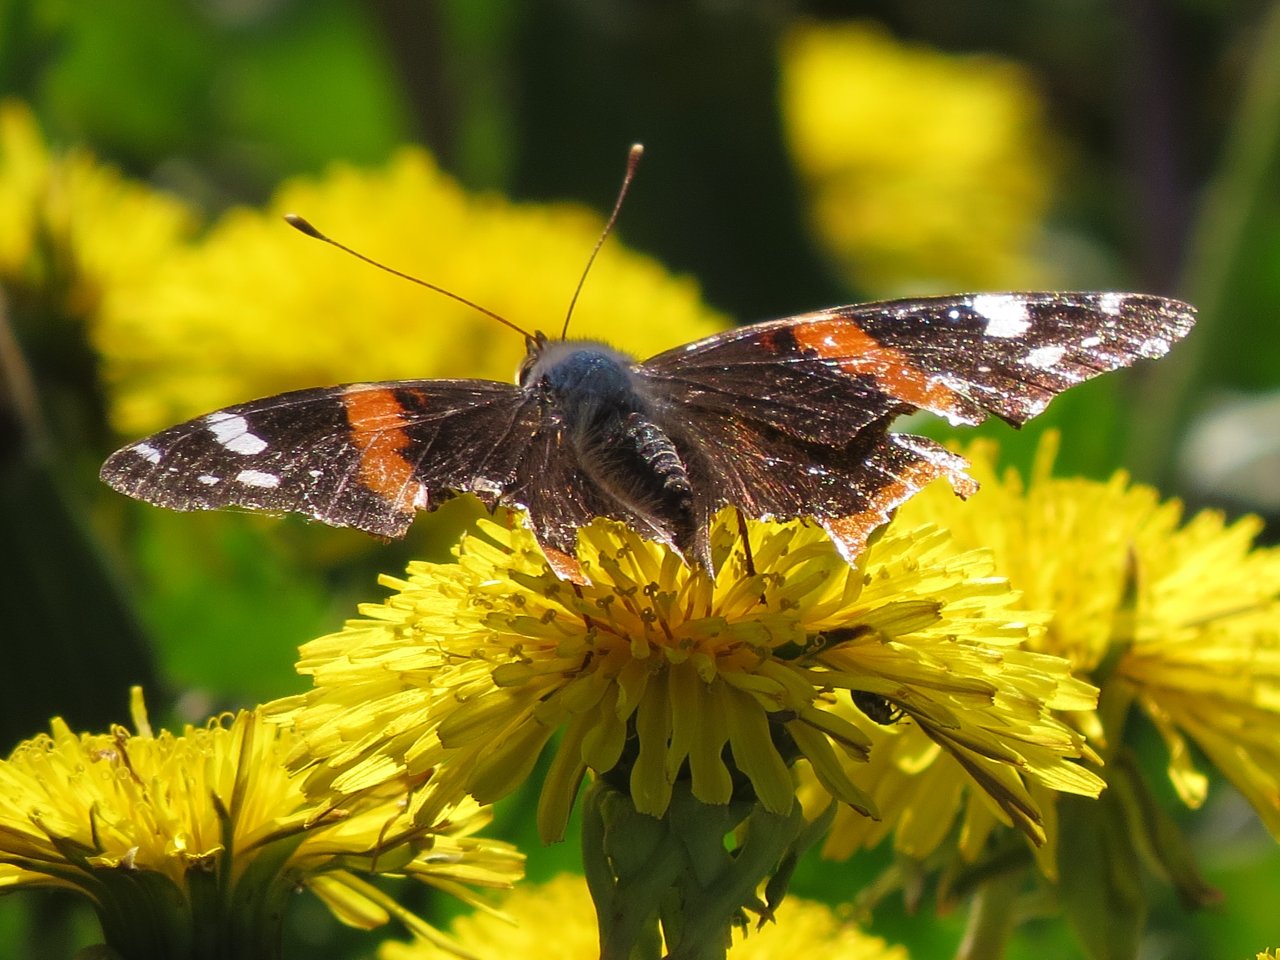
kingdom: Animalia
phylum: Arthropoda
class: Insecta
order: Lepidoptera
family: Nymphalidae
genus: Vanessa
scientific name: Vanessa atalanta
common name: Red Admiral
